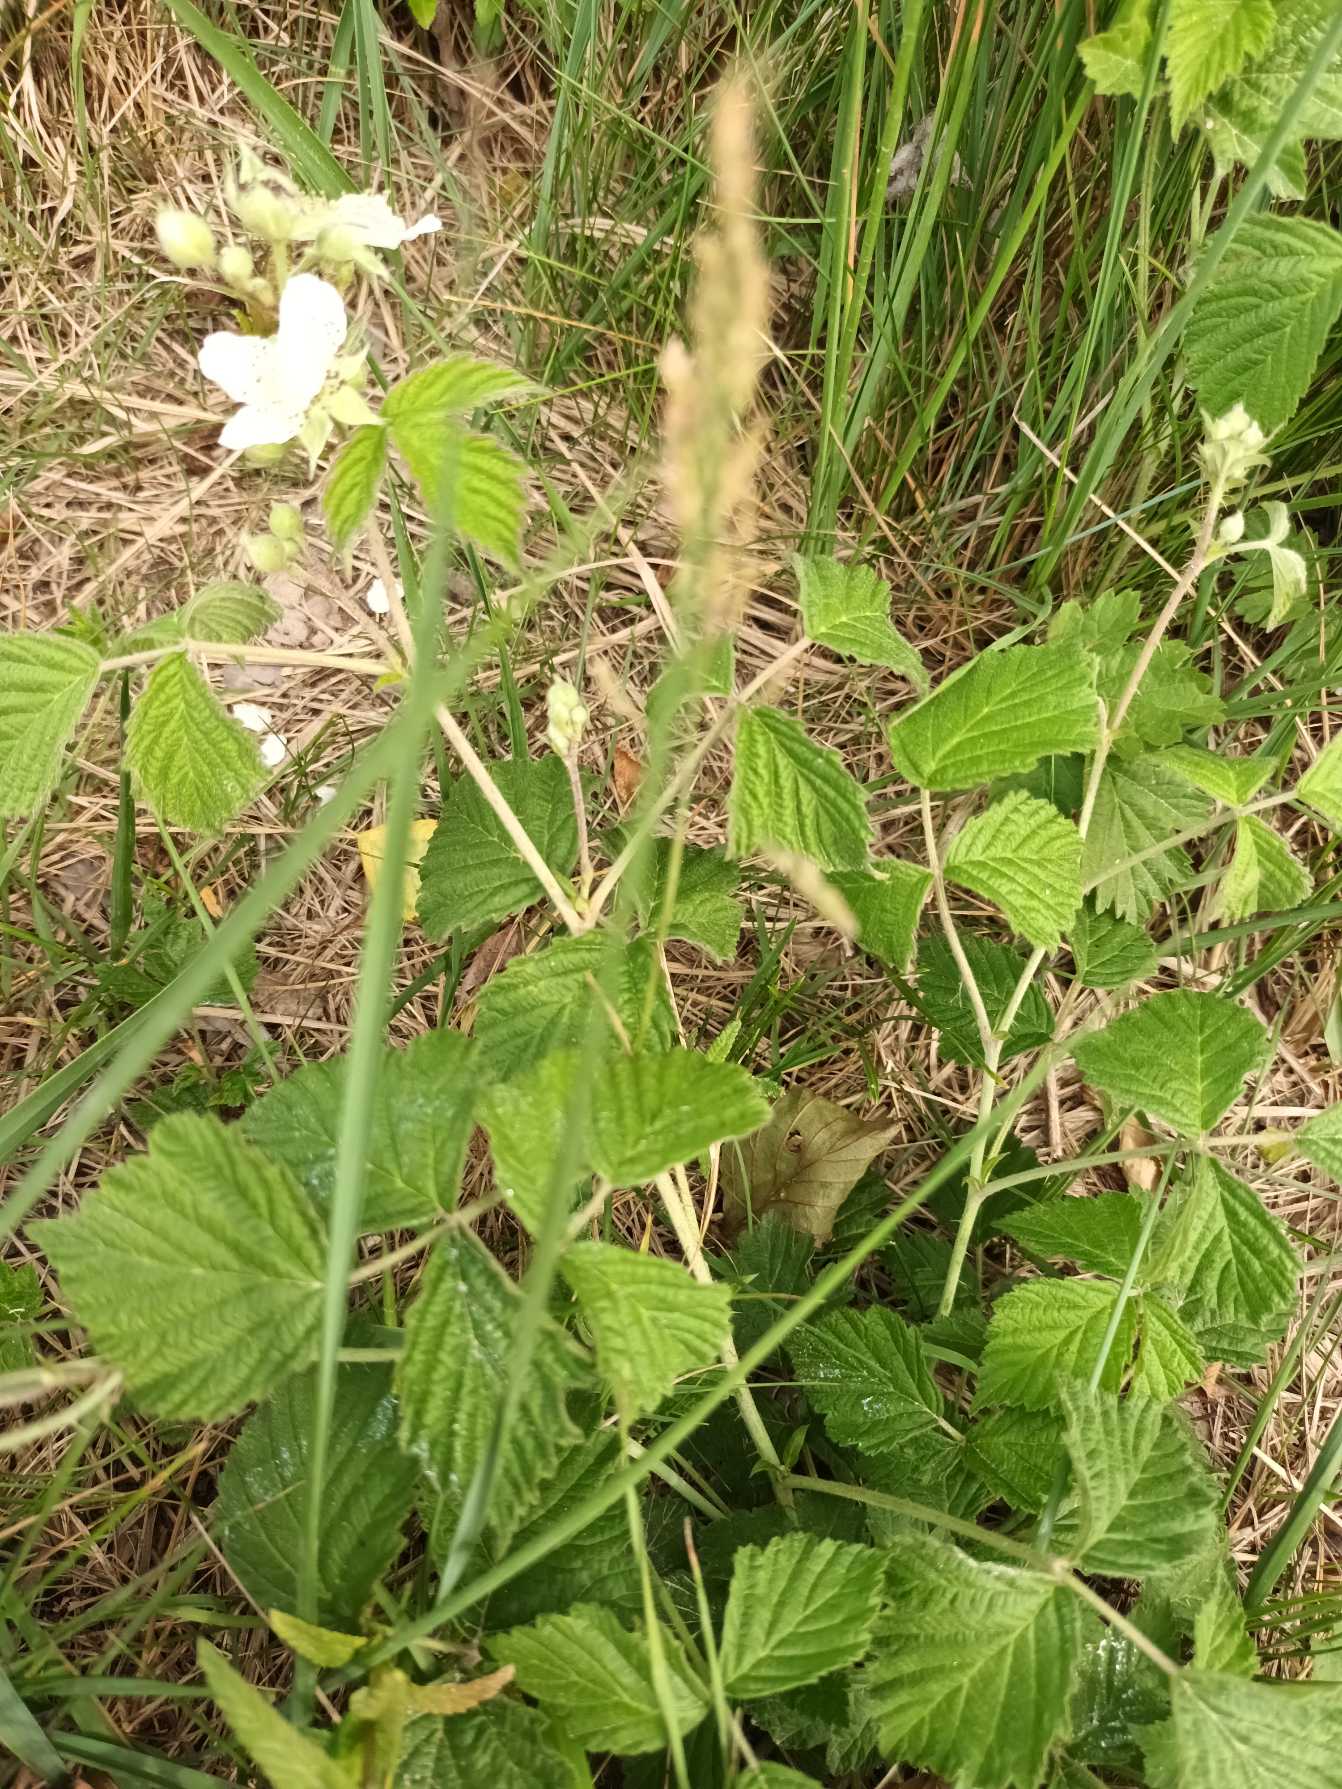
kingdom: Plantae
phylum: Tracheophyta
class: Magnoliopsida
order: Rosales
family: Rosaceae
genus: Rubus
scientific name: Rubus caesius
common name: Korbær
